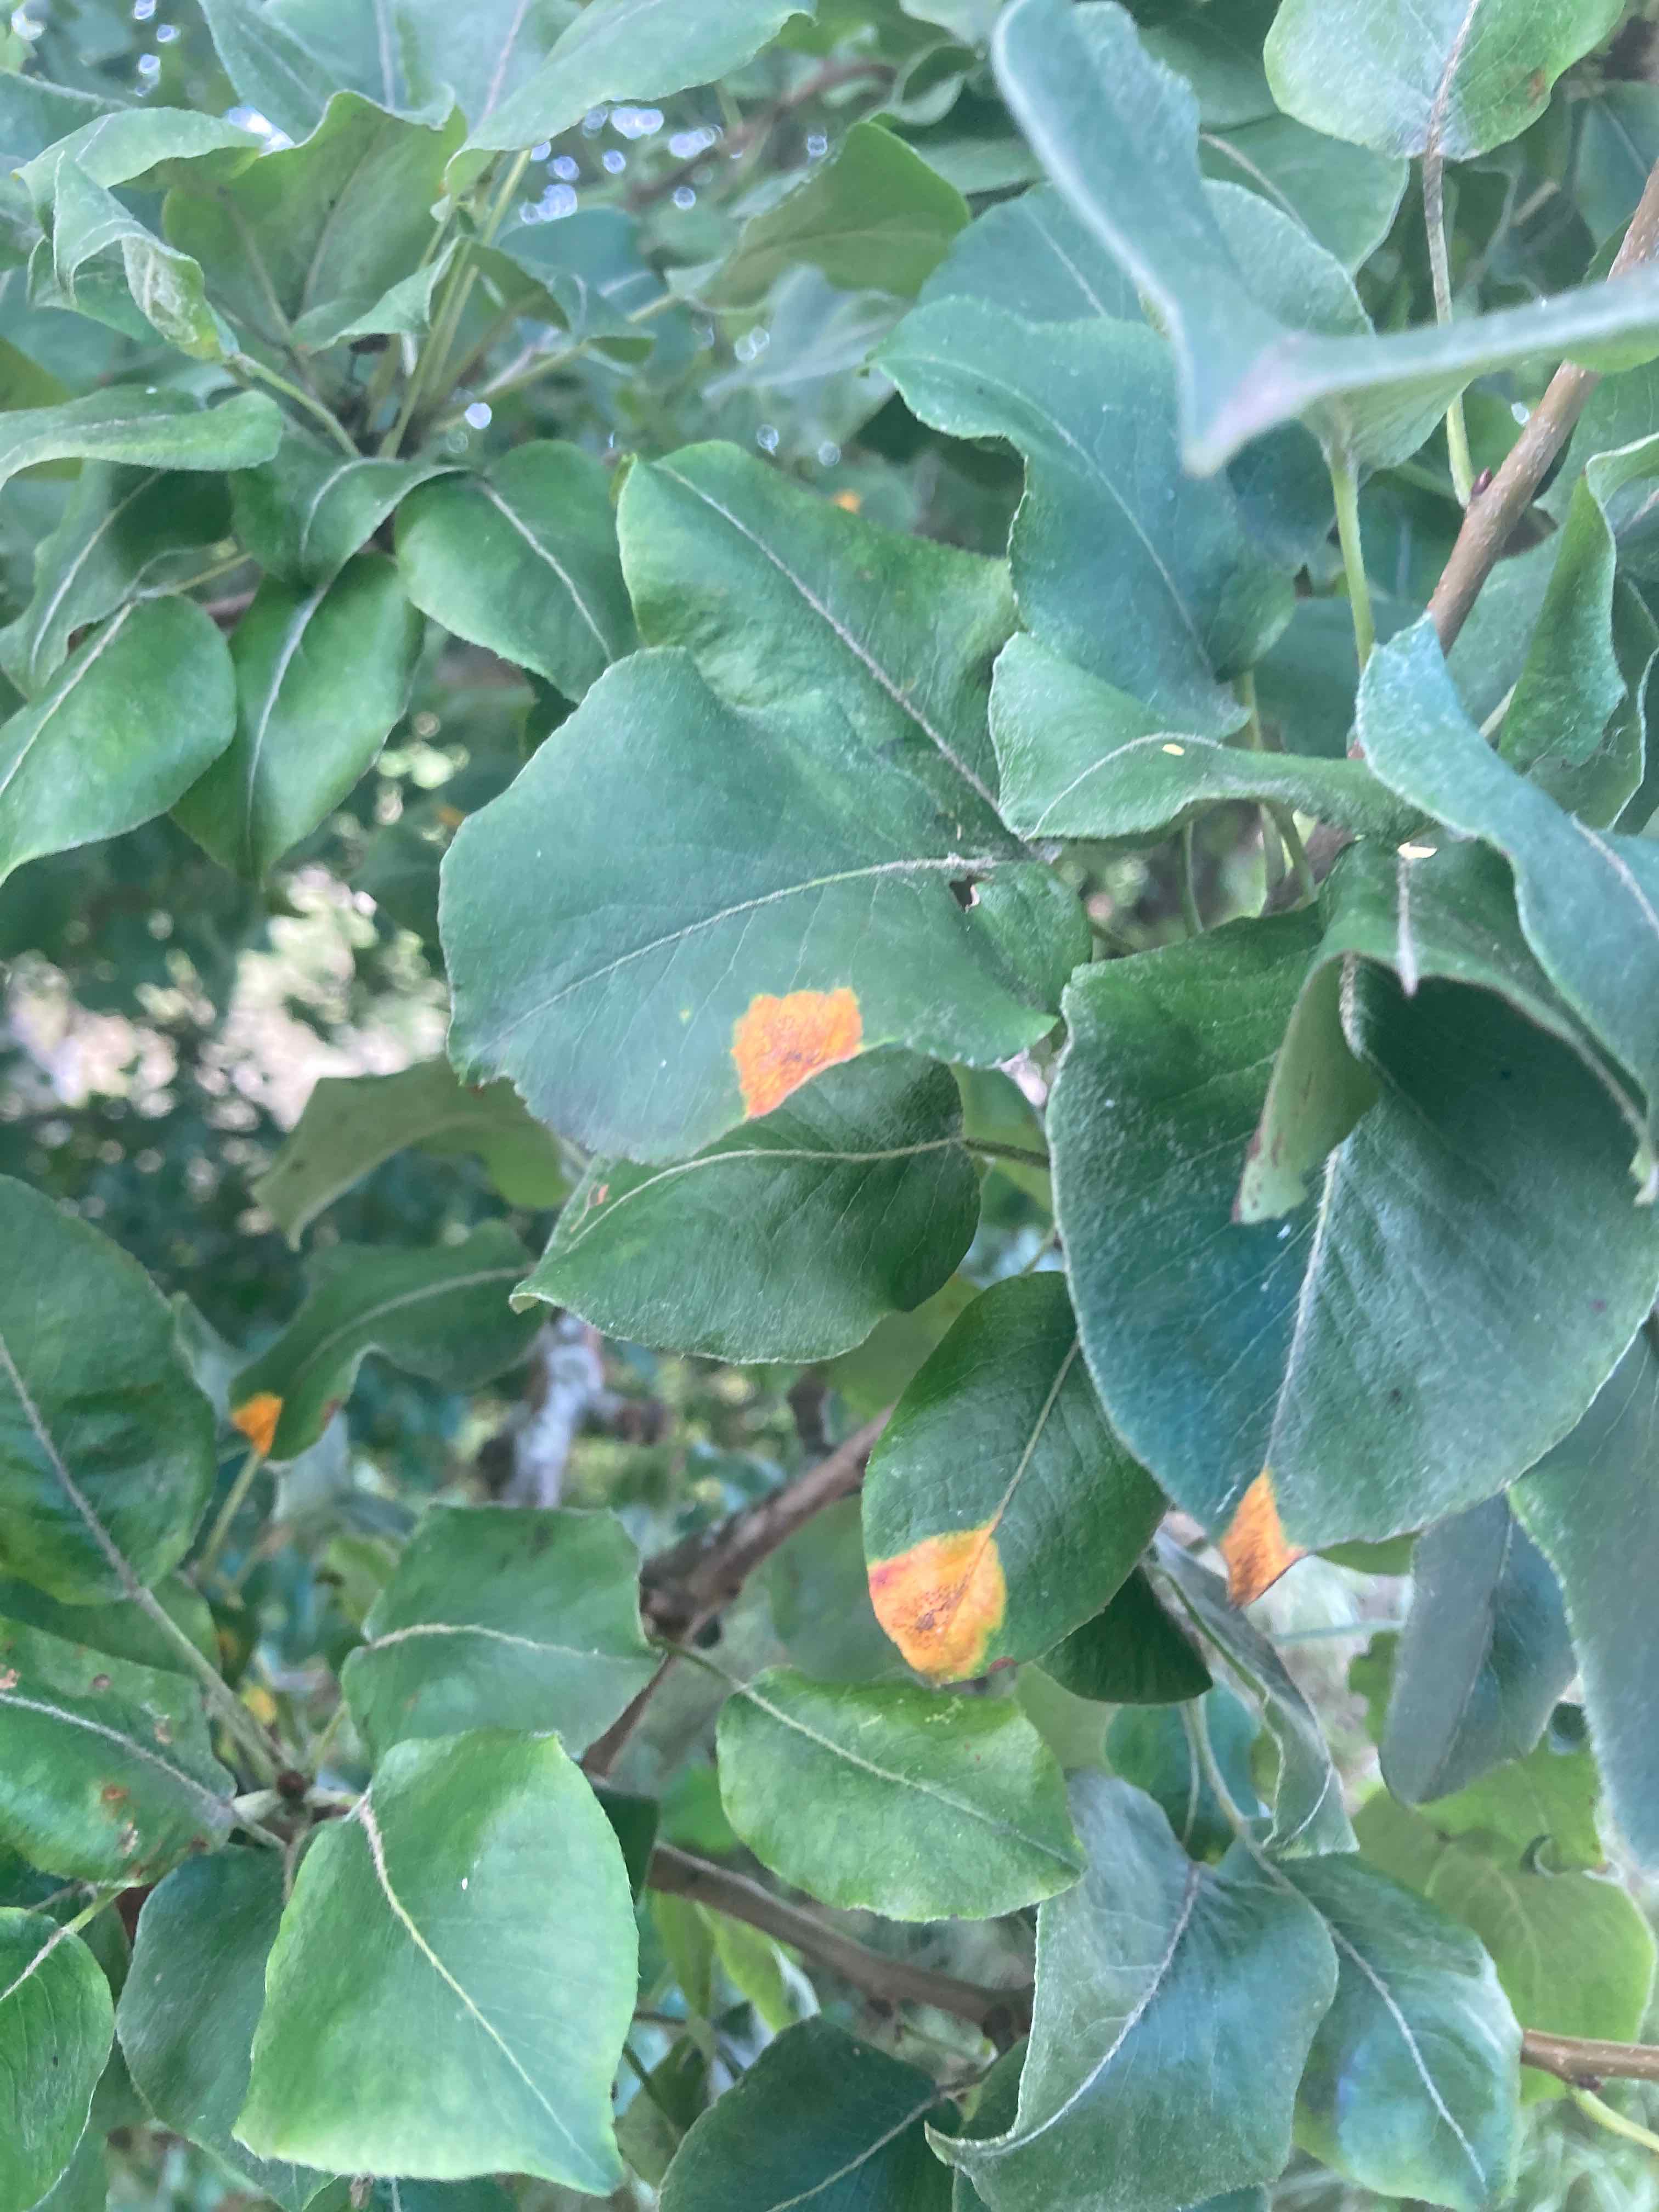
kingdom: Fungi
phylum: Basidiomycota
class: Pucciniomycetes
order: Pucciniales
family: Gymnosporangiaceae
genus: Gymnosporangium
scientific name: Gymnosporangium sabinae
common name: pæregitter-bævrerust
